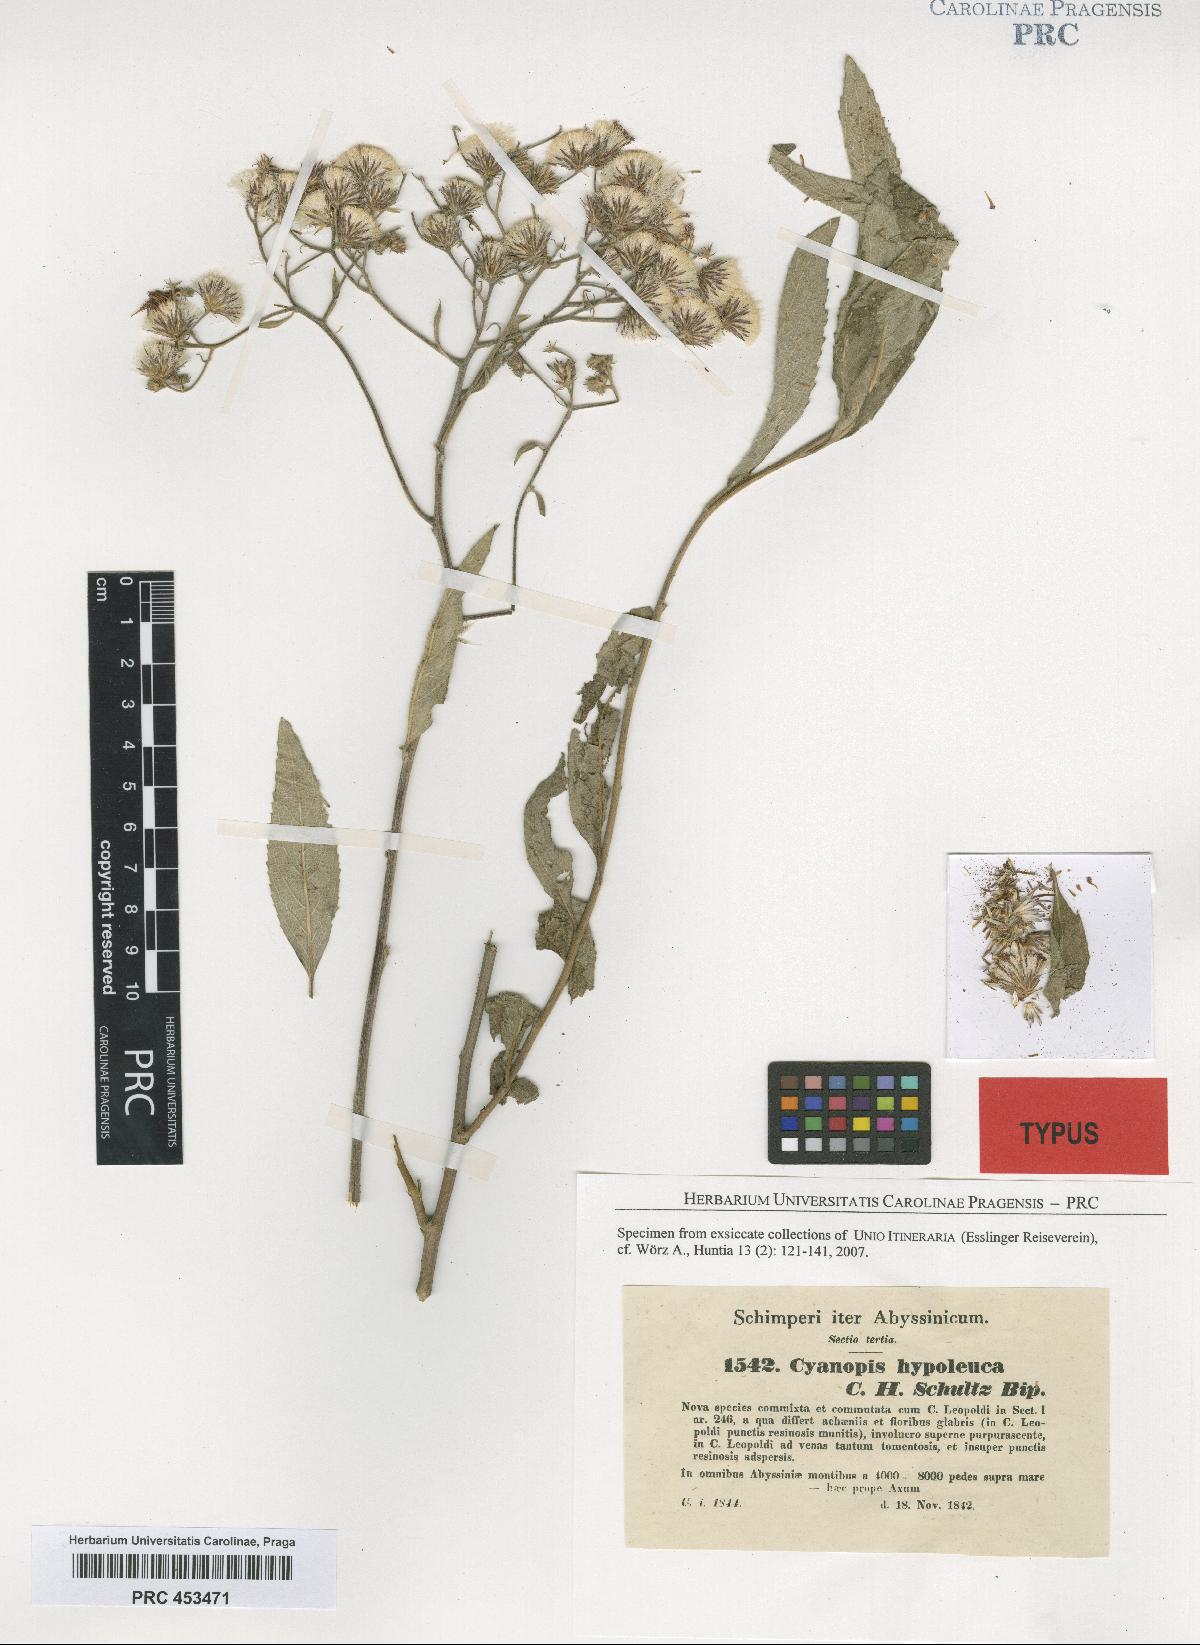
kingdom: Plantae
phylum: Tracheophyta
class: Magnoliopsida
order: Asterales
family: Asteraceae
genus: Vernonia
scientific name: Vernonia bipontini
